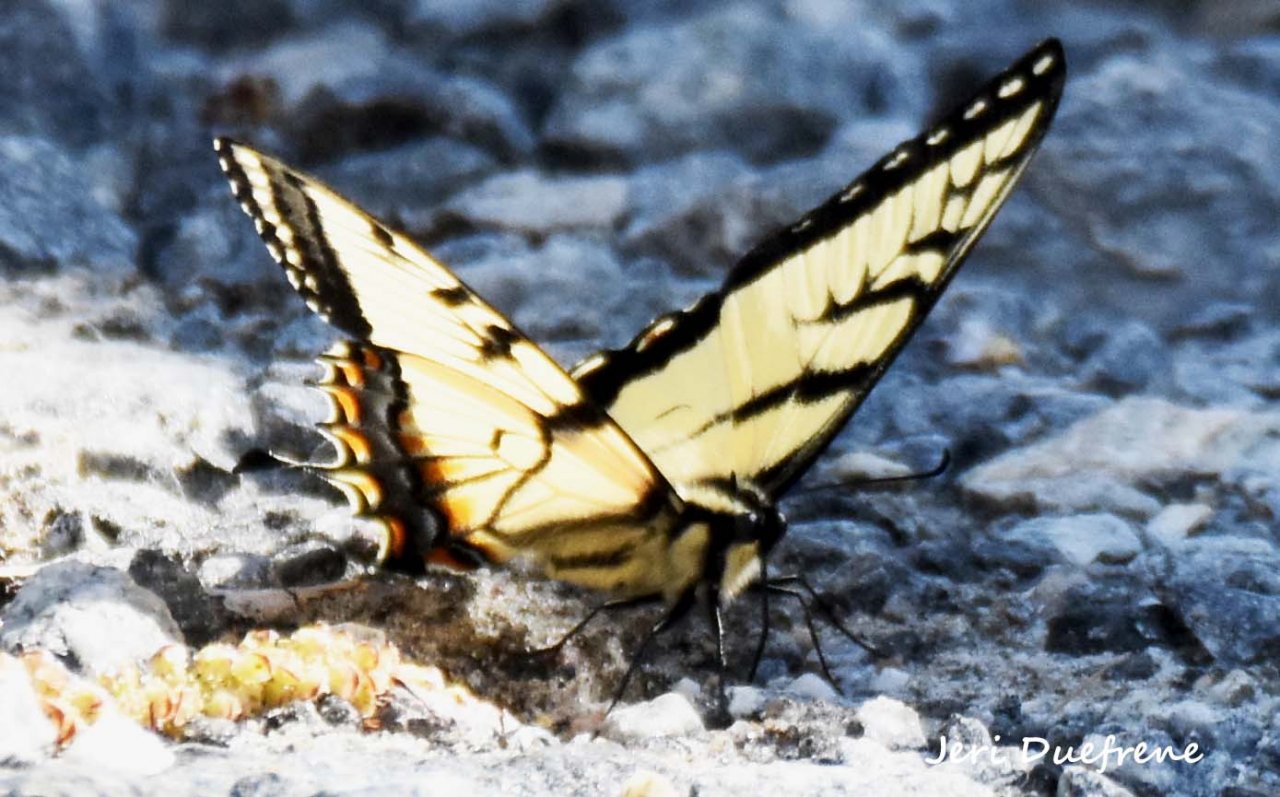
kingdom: Animalia
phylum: Arthropoda
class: Insecta
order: Lepidoptera
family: Papilionidae
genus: Pterourus
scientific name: Pterourus glaucus
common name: Eastern Tiger Swallowtail
